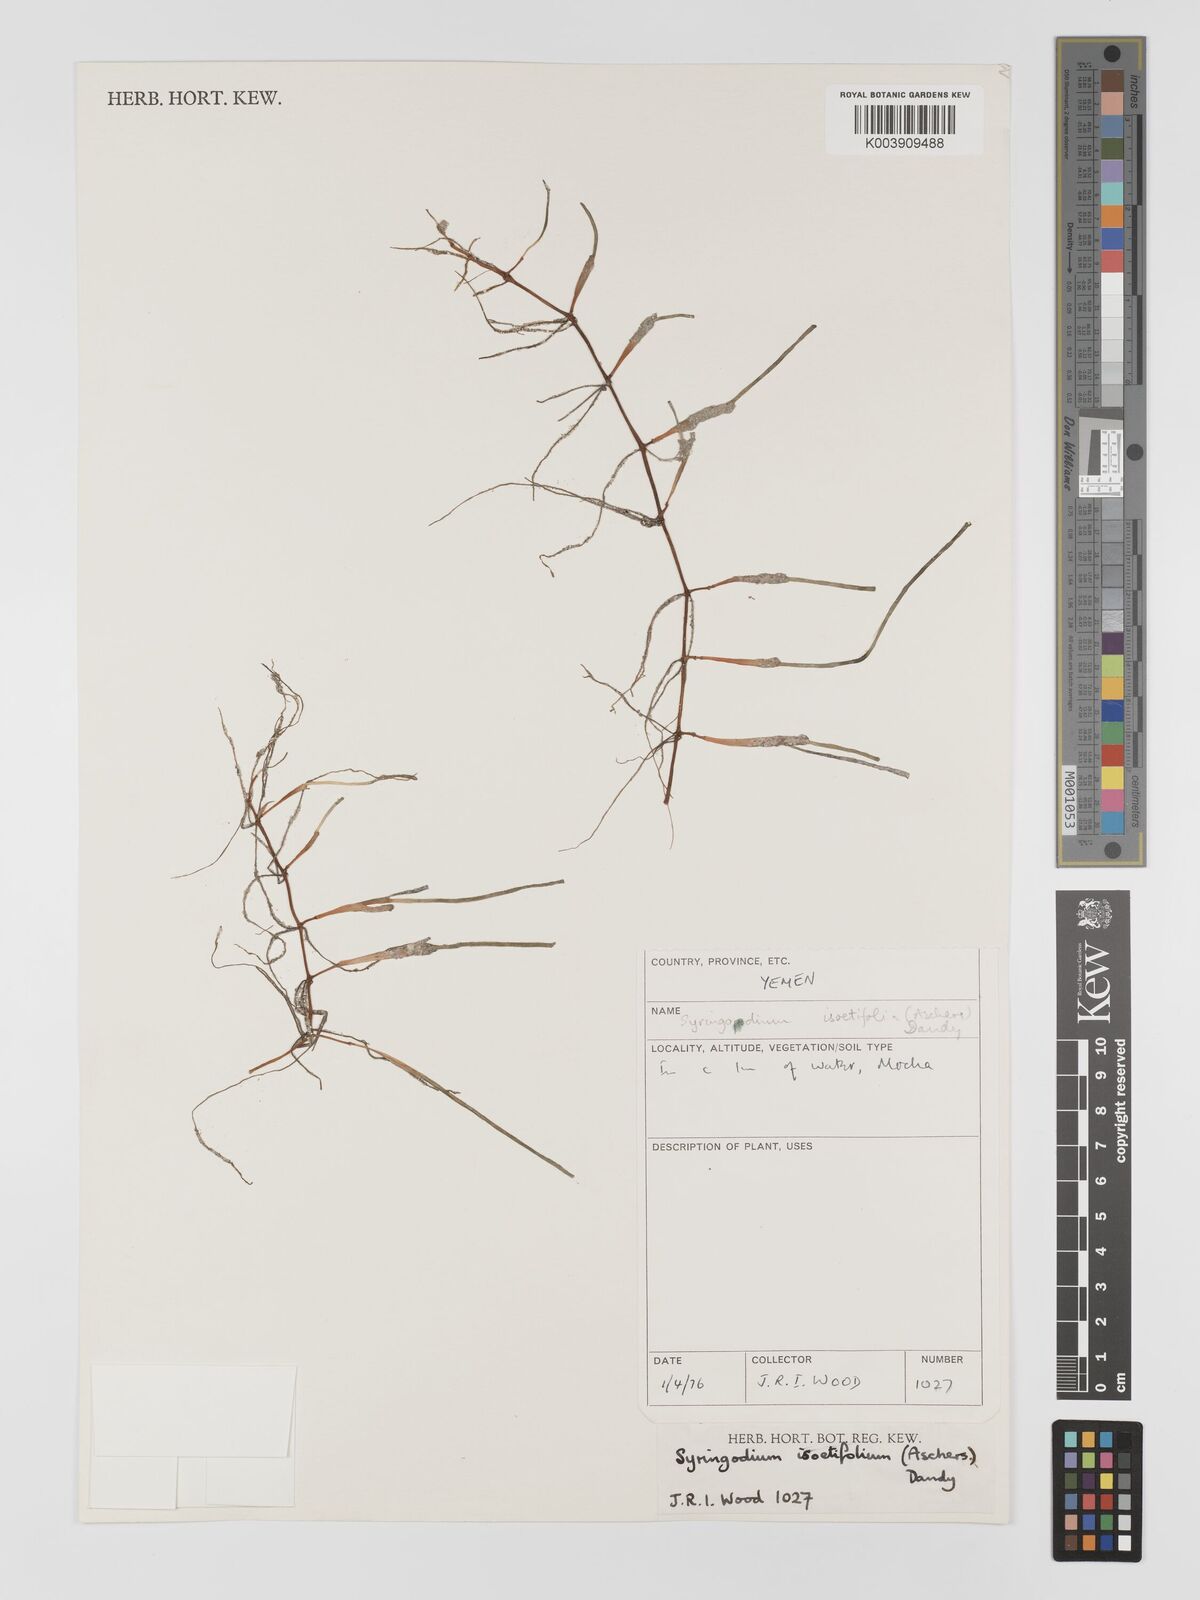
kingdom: Plantae
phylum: Tracheophyta
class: Liliopsida
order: Alismatales
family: Cymodoceaceae
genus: Syringodium
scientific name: Syringodium isoetifolium
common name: Species code: si
